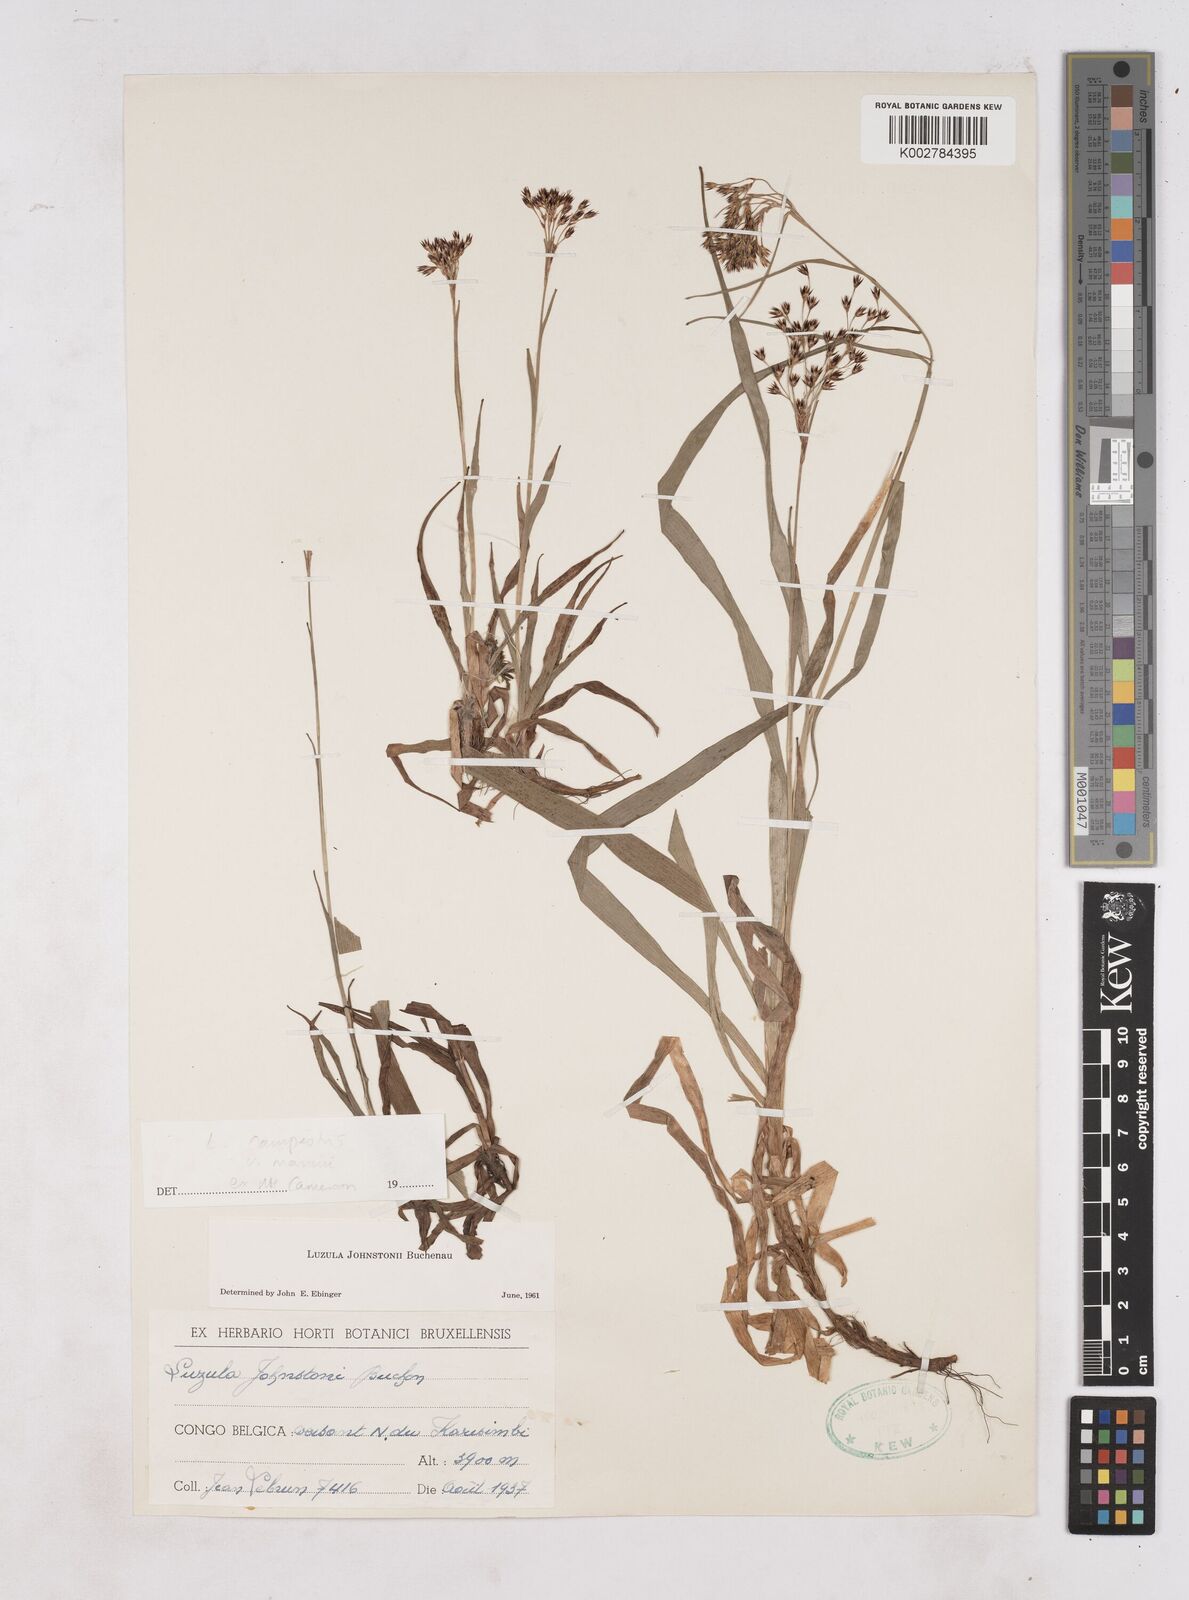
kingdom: Plantae
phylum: Tracheophyta
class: Liliopsida
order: Poales
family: Juncaceae
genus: Luzula
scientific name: Luzula campestris
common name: Field wood-rush
